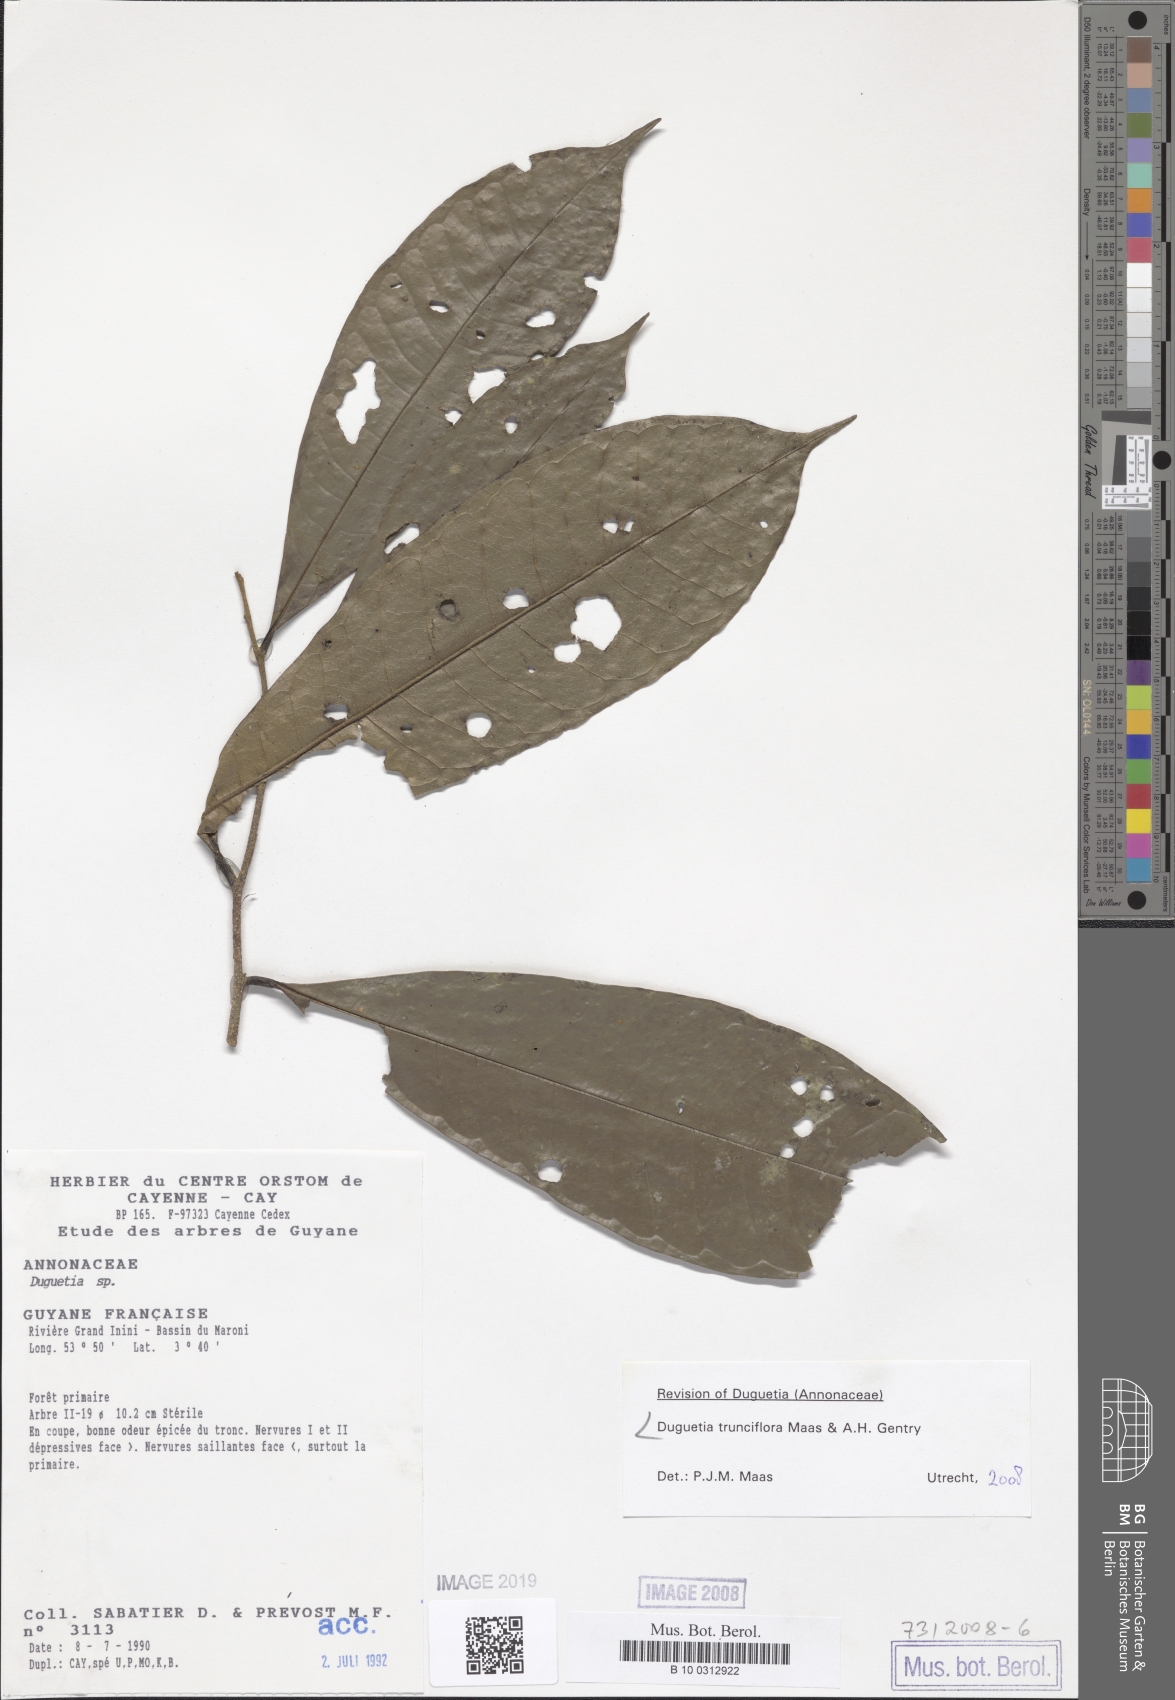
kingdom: Plantae
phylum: Tracheophyta
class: Magnoliopsida
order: Magnoliales
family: Annonaceae
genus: Duguetia
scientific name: Duguetia trunciflora
